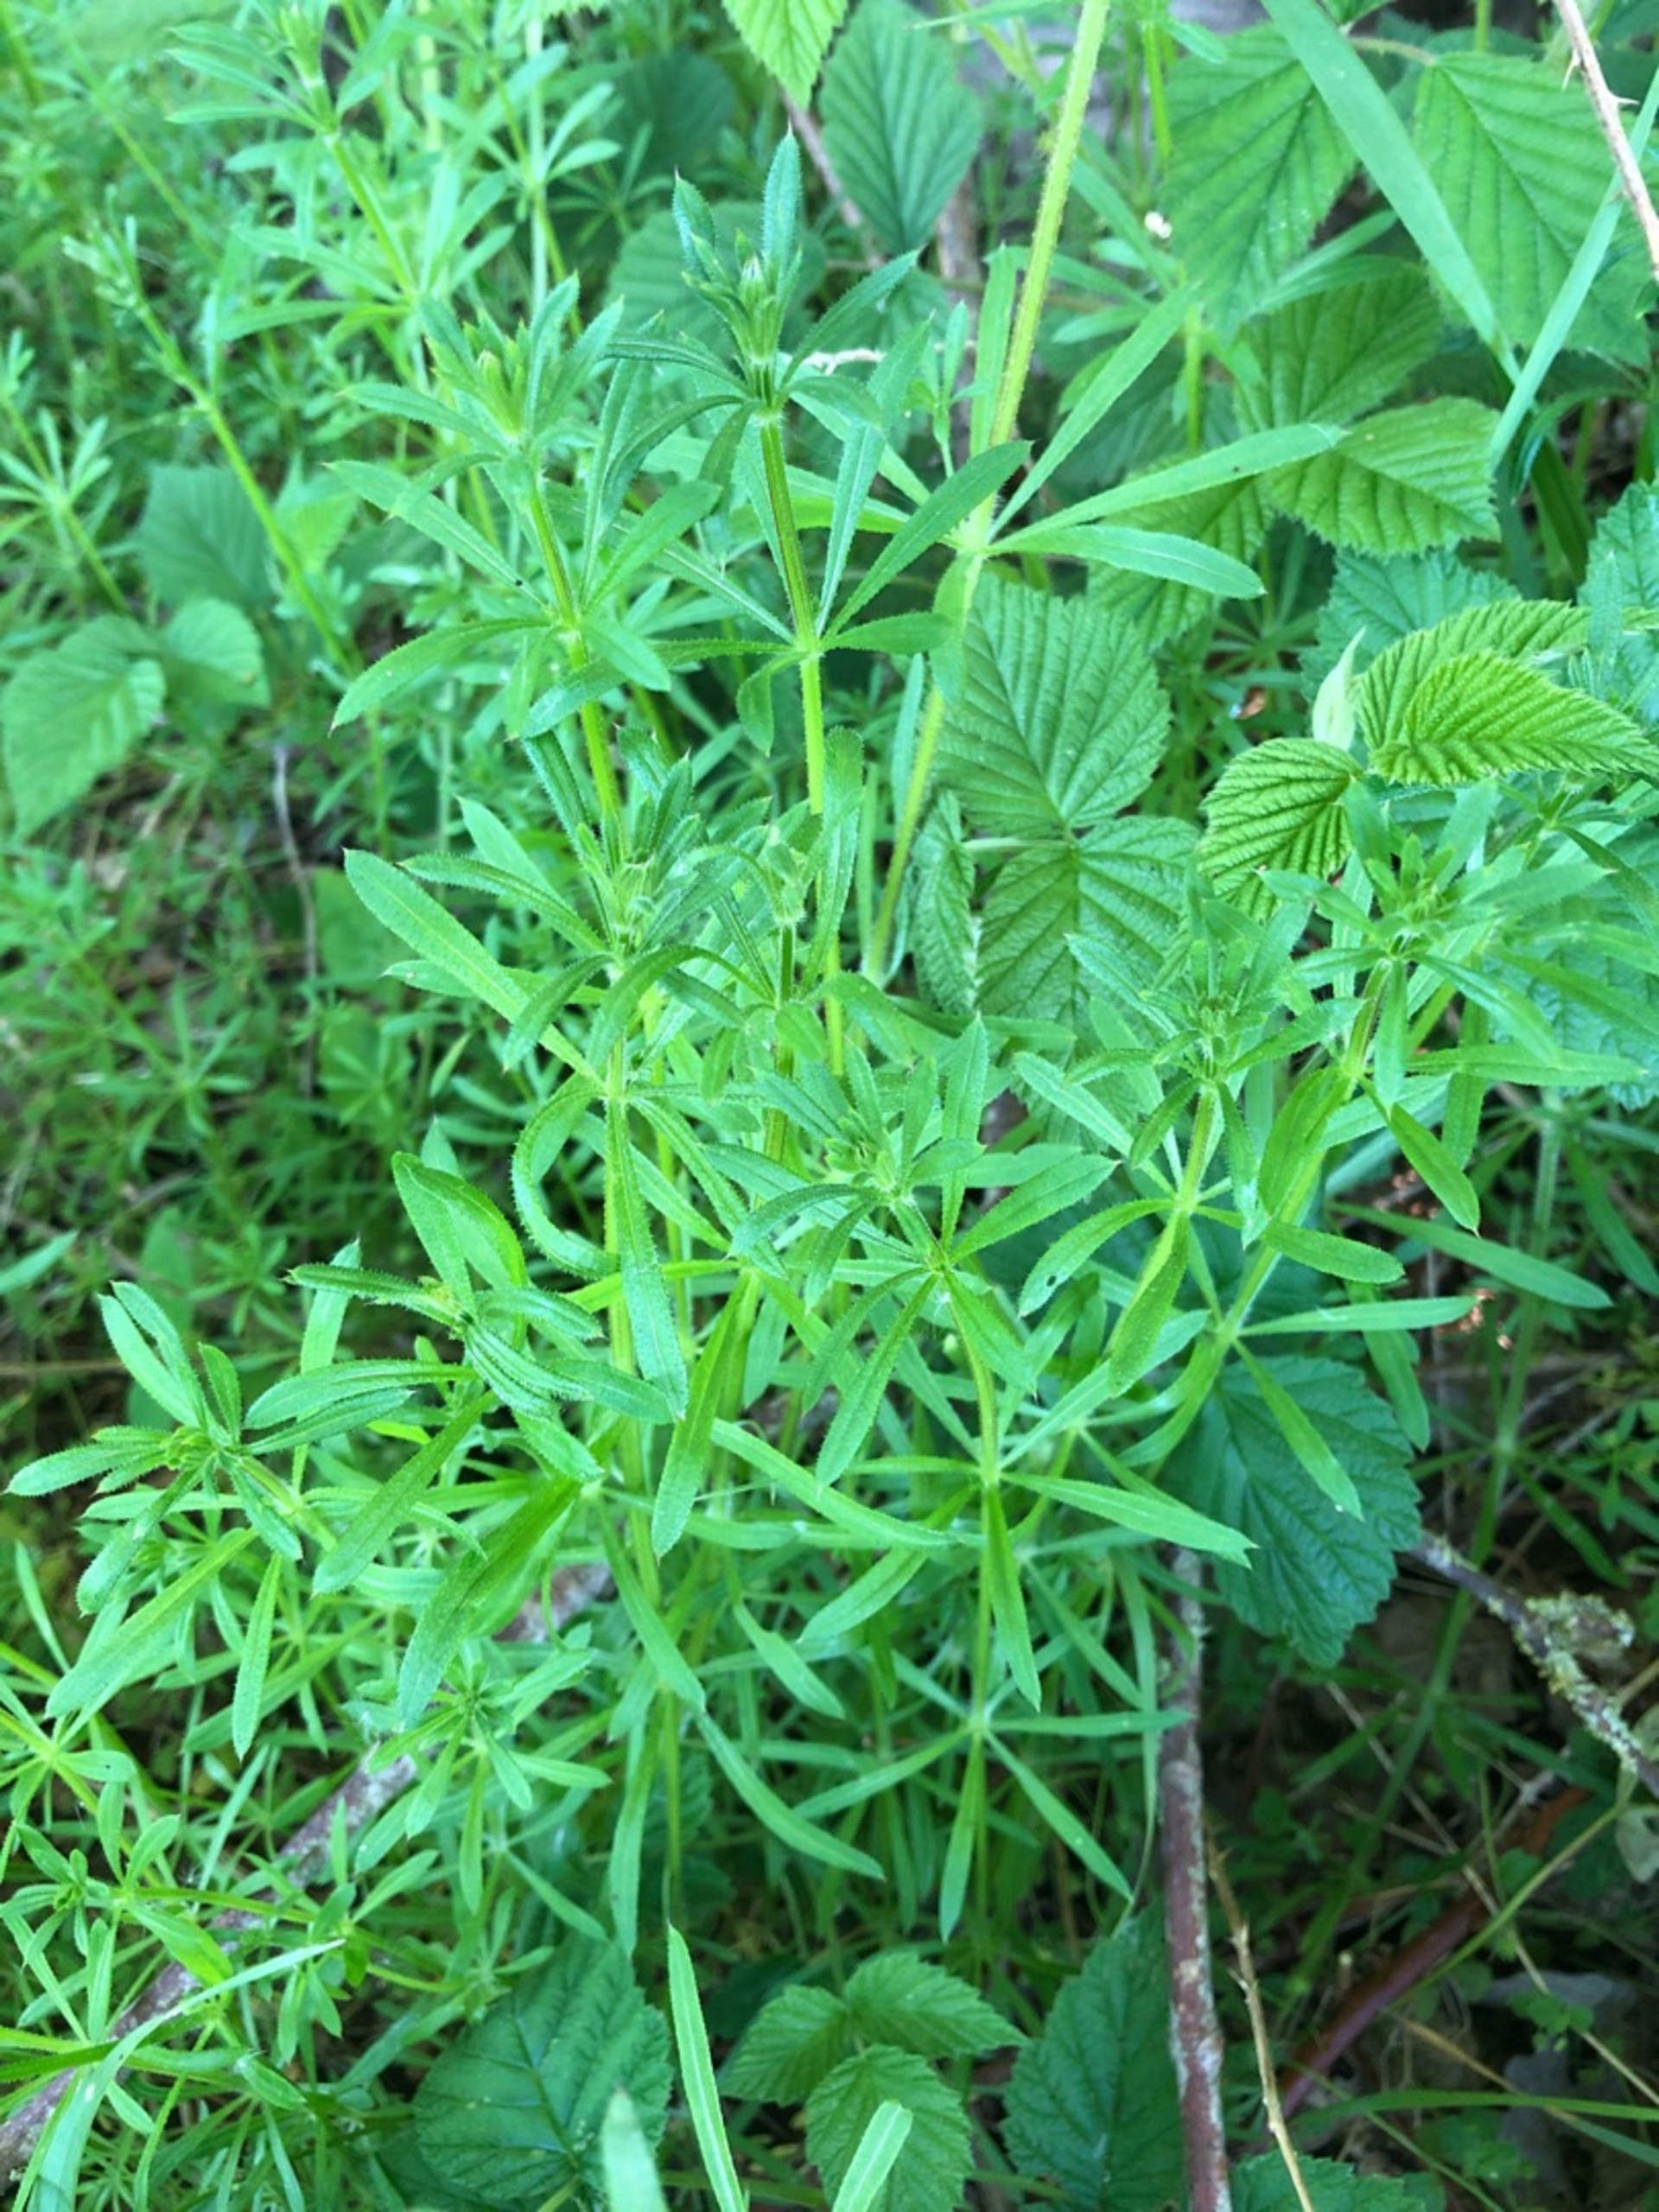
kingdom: Plantae
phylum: Tracheophyta
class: Magnoliopsida
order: Gentianales
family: Rubiaceae
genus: Galium
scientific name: Galium aparine
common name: Burre-snerre
